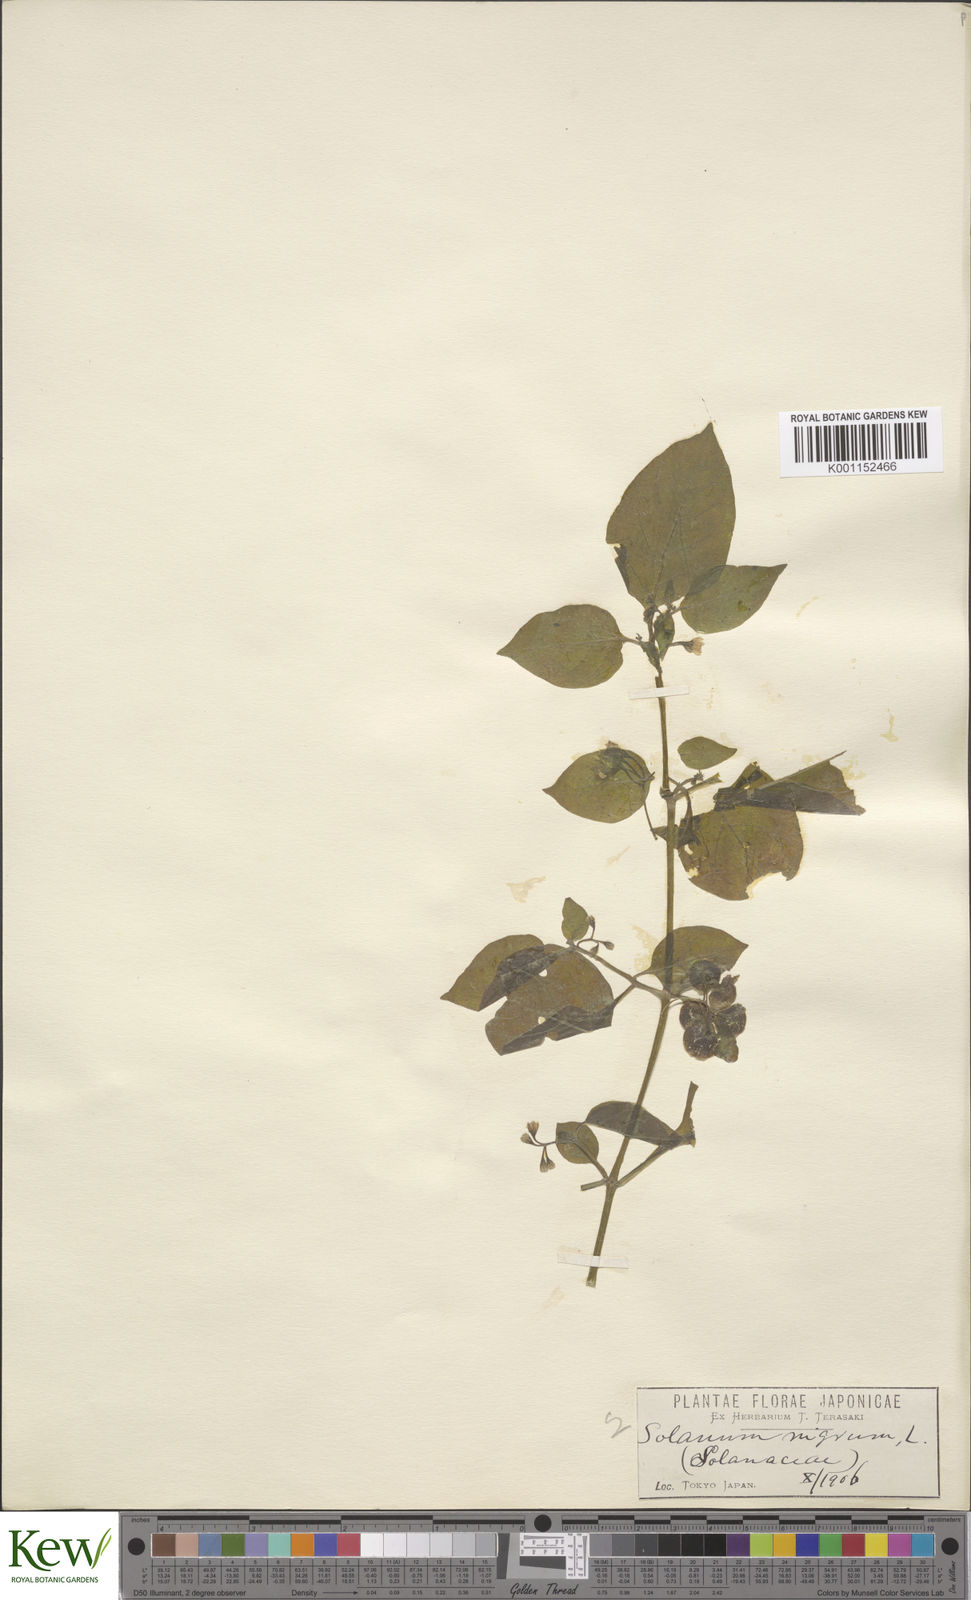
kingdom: Plantae
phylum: Tracheophyta
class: Magnoliopsida
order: Solanales
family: Solanaceae
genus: Solanum
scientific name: Solanum
